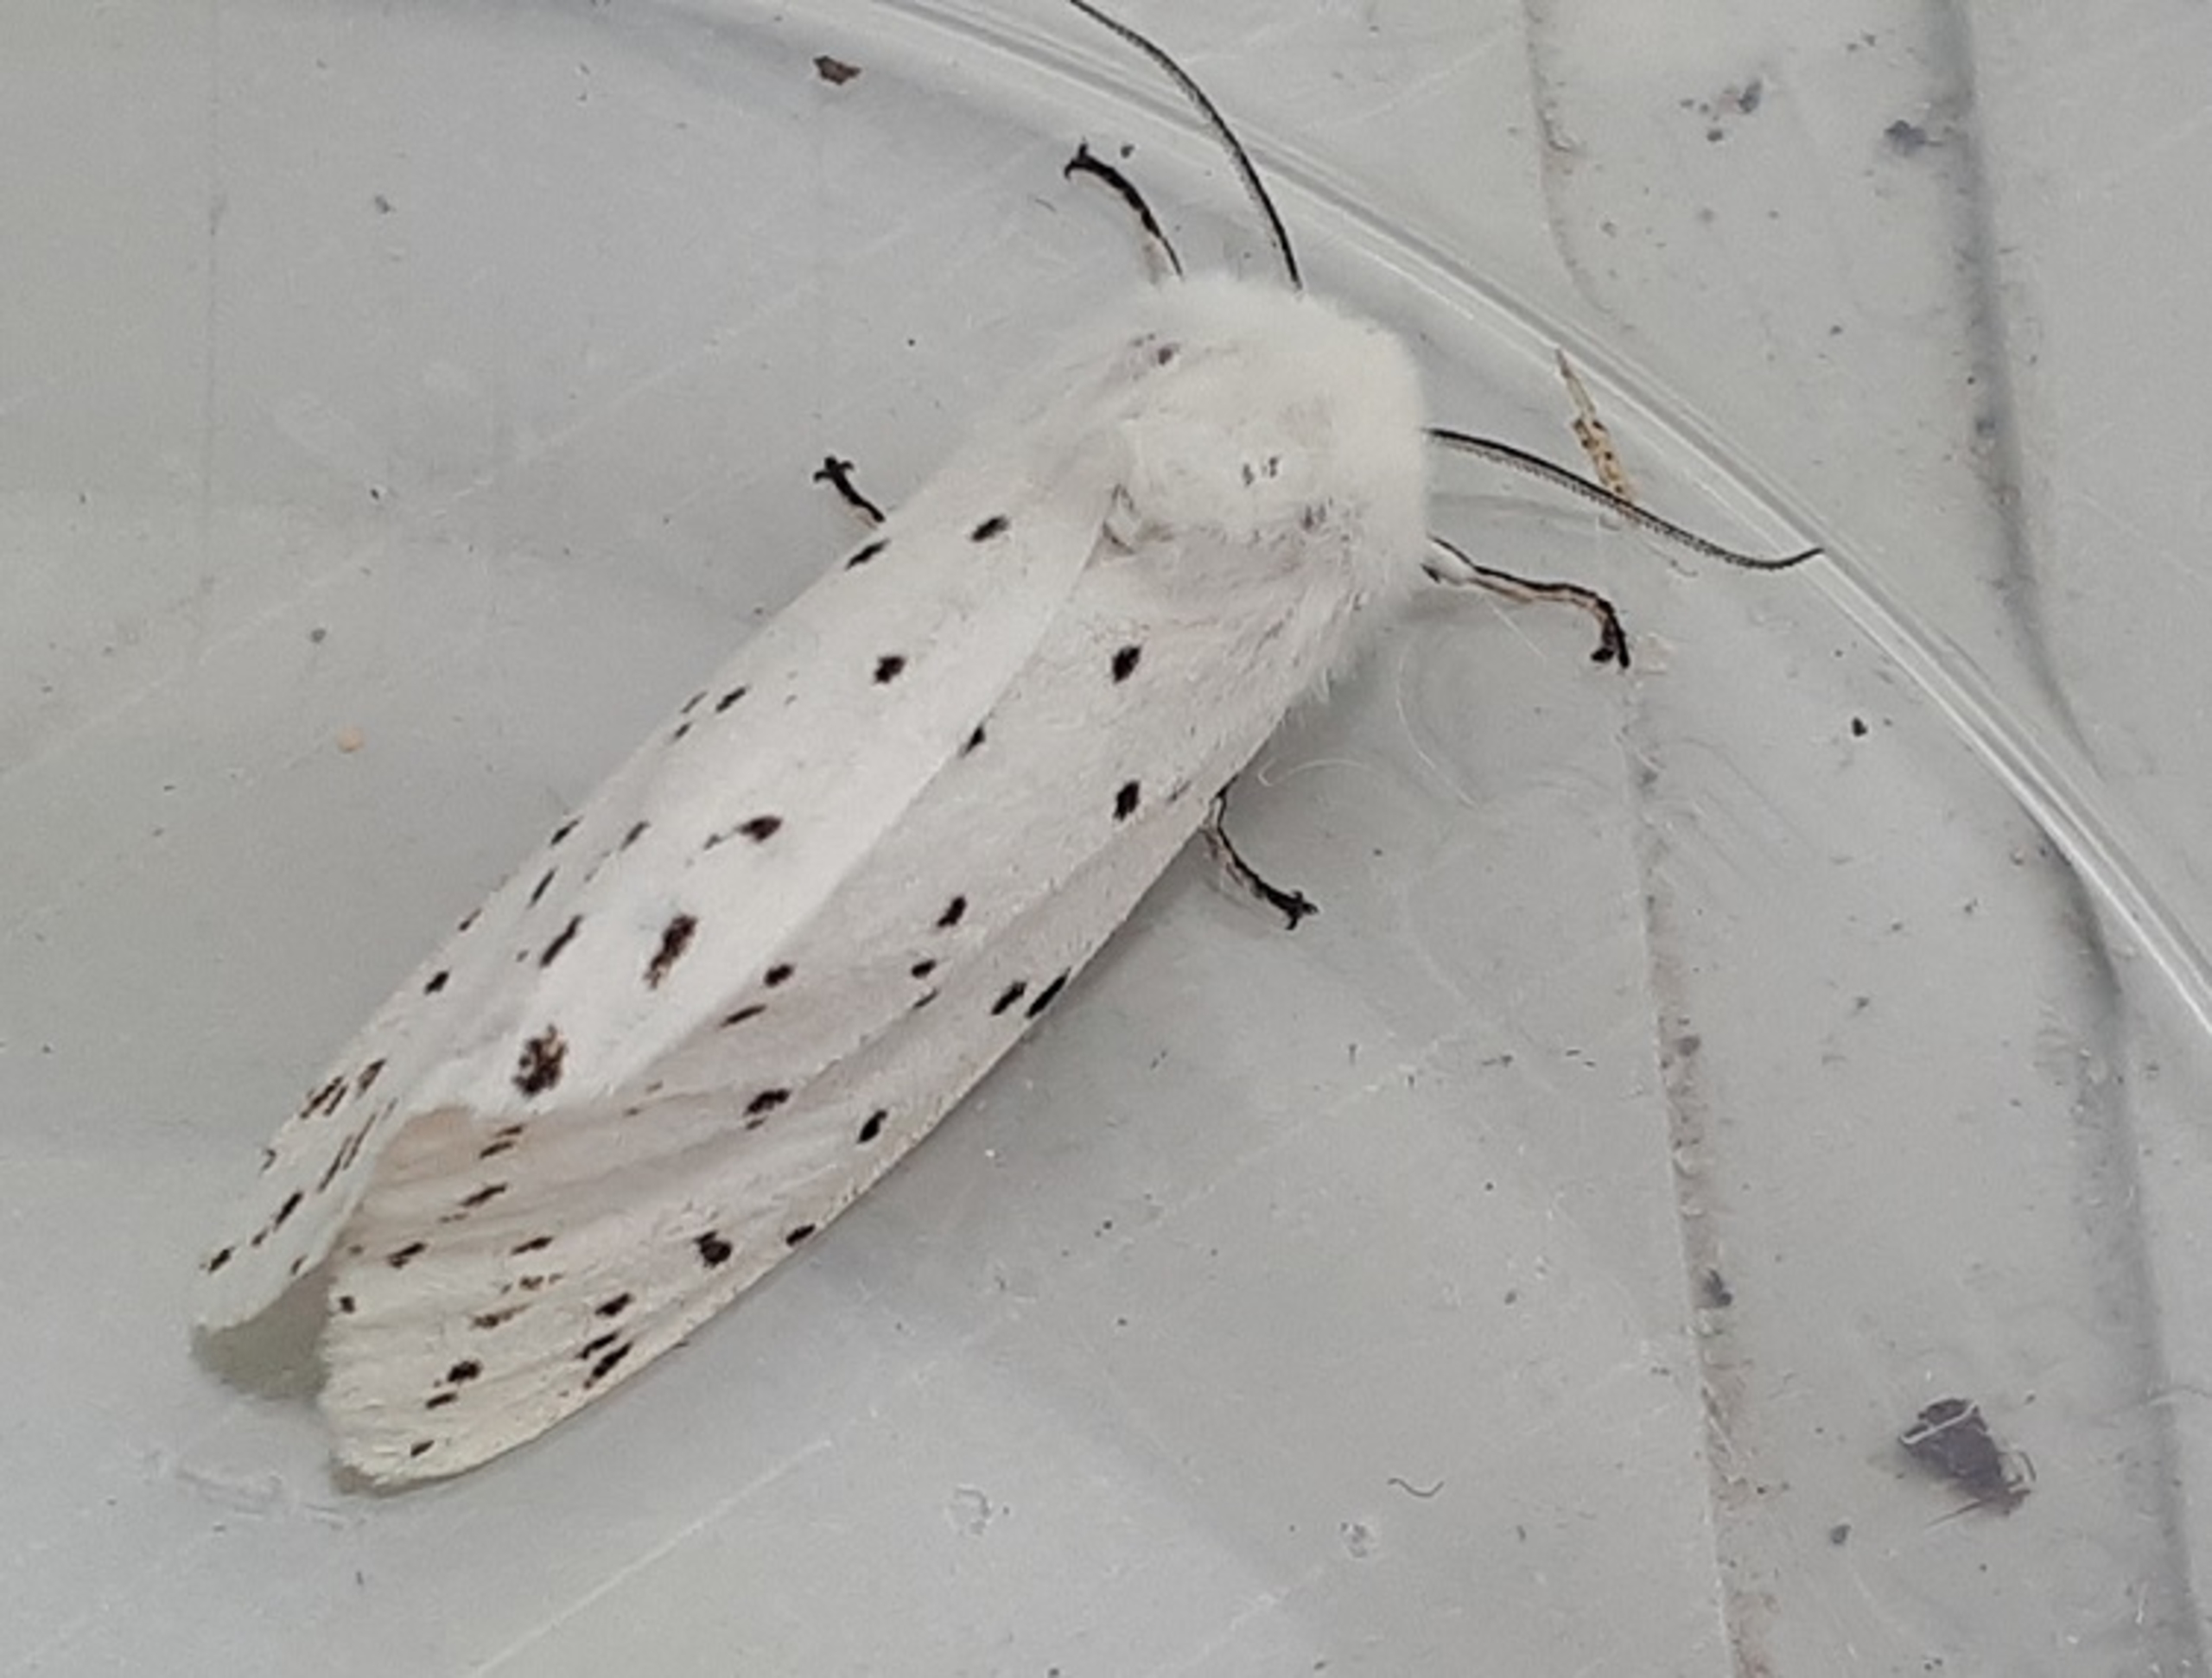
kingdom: Animalia
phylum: Arthropoda
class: Insecta
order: Lepidoptera
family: Erebidae
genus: Spilosoma
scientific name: Spilosoma lubricipeda
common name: Almindelig tigerspinder
